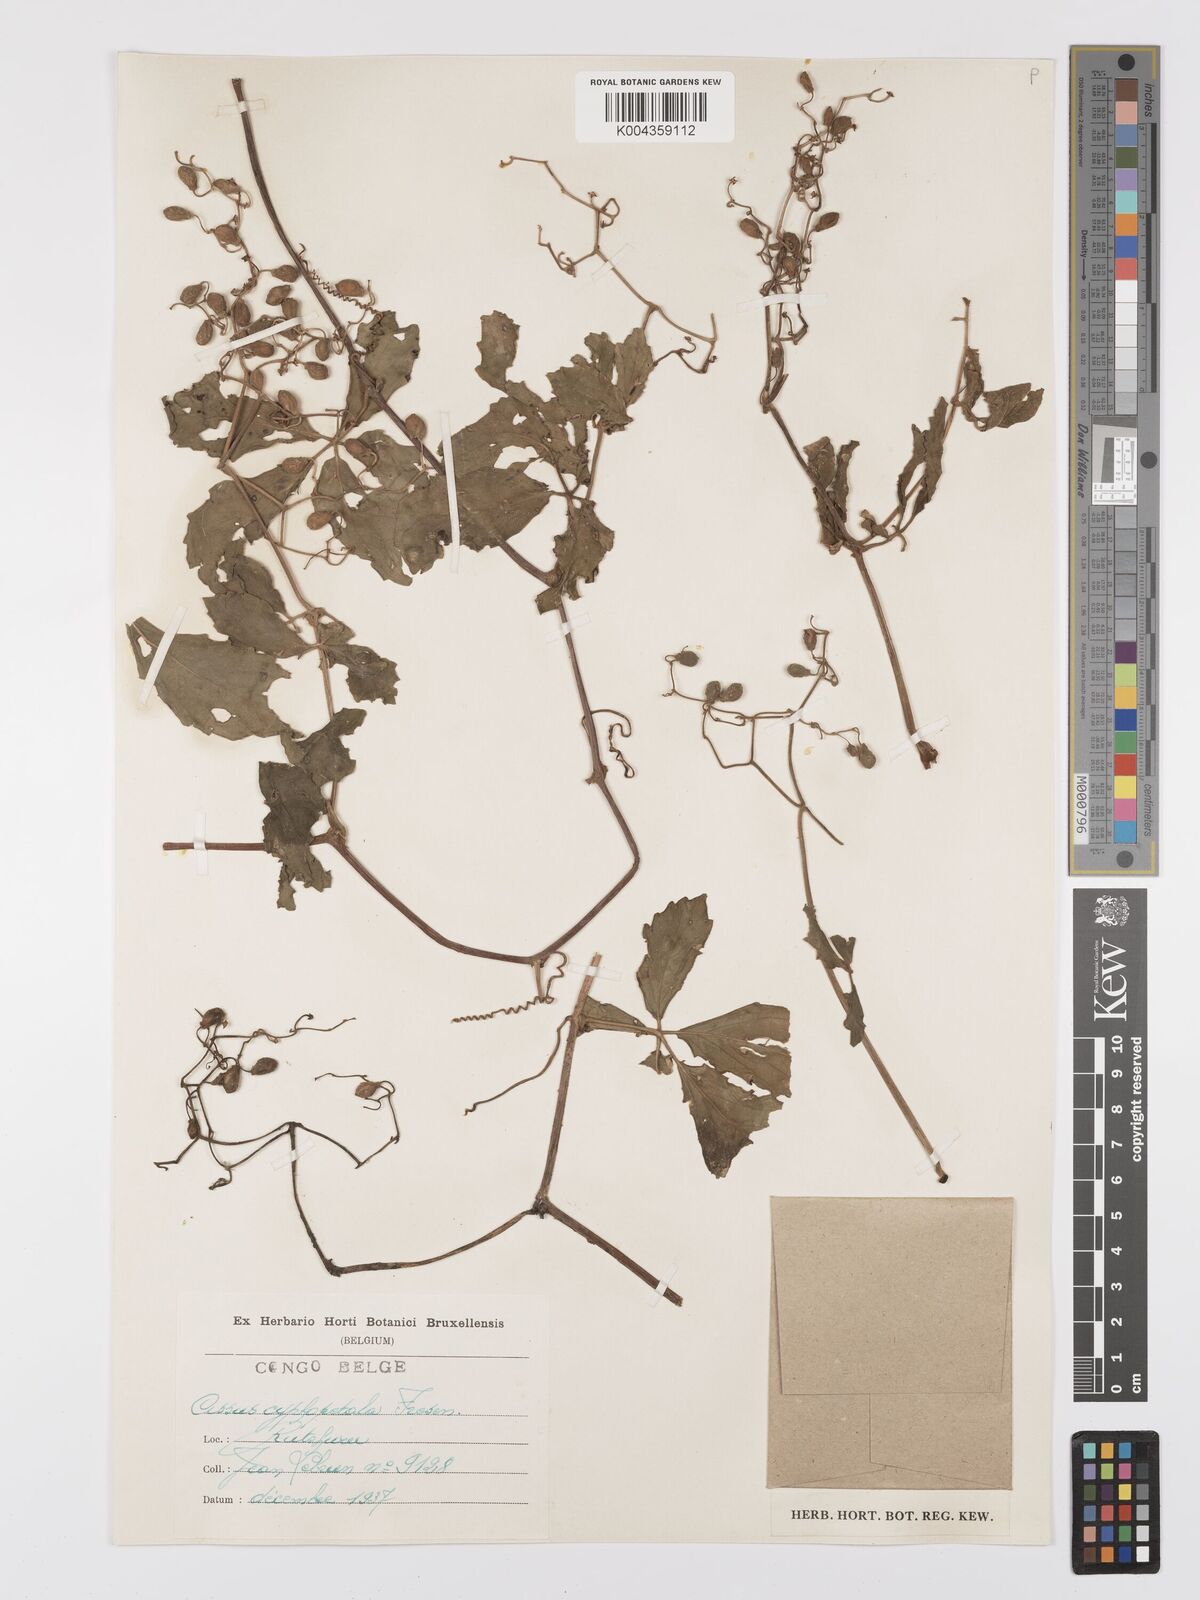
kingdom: Plantae
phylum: Tracheophyta
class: Magnoliopsida
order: Vitales
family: Vitaceae
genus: Cyphostemma
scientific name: Cyphostemma cyphopetalum
